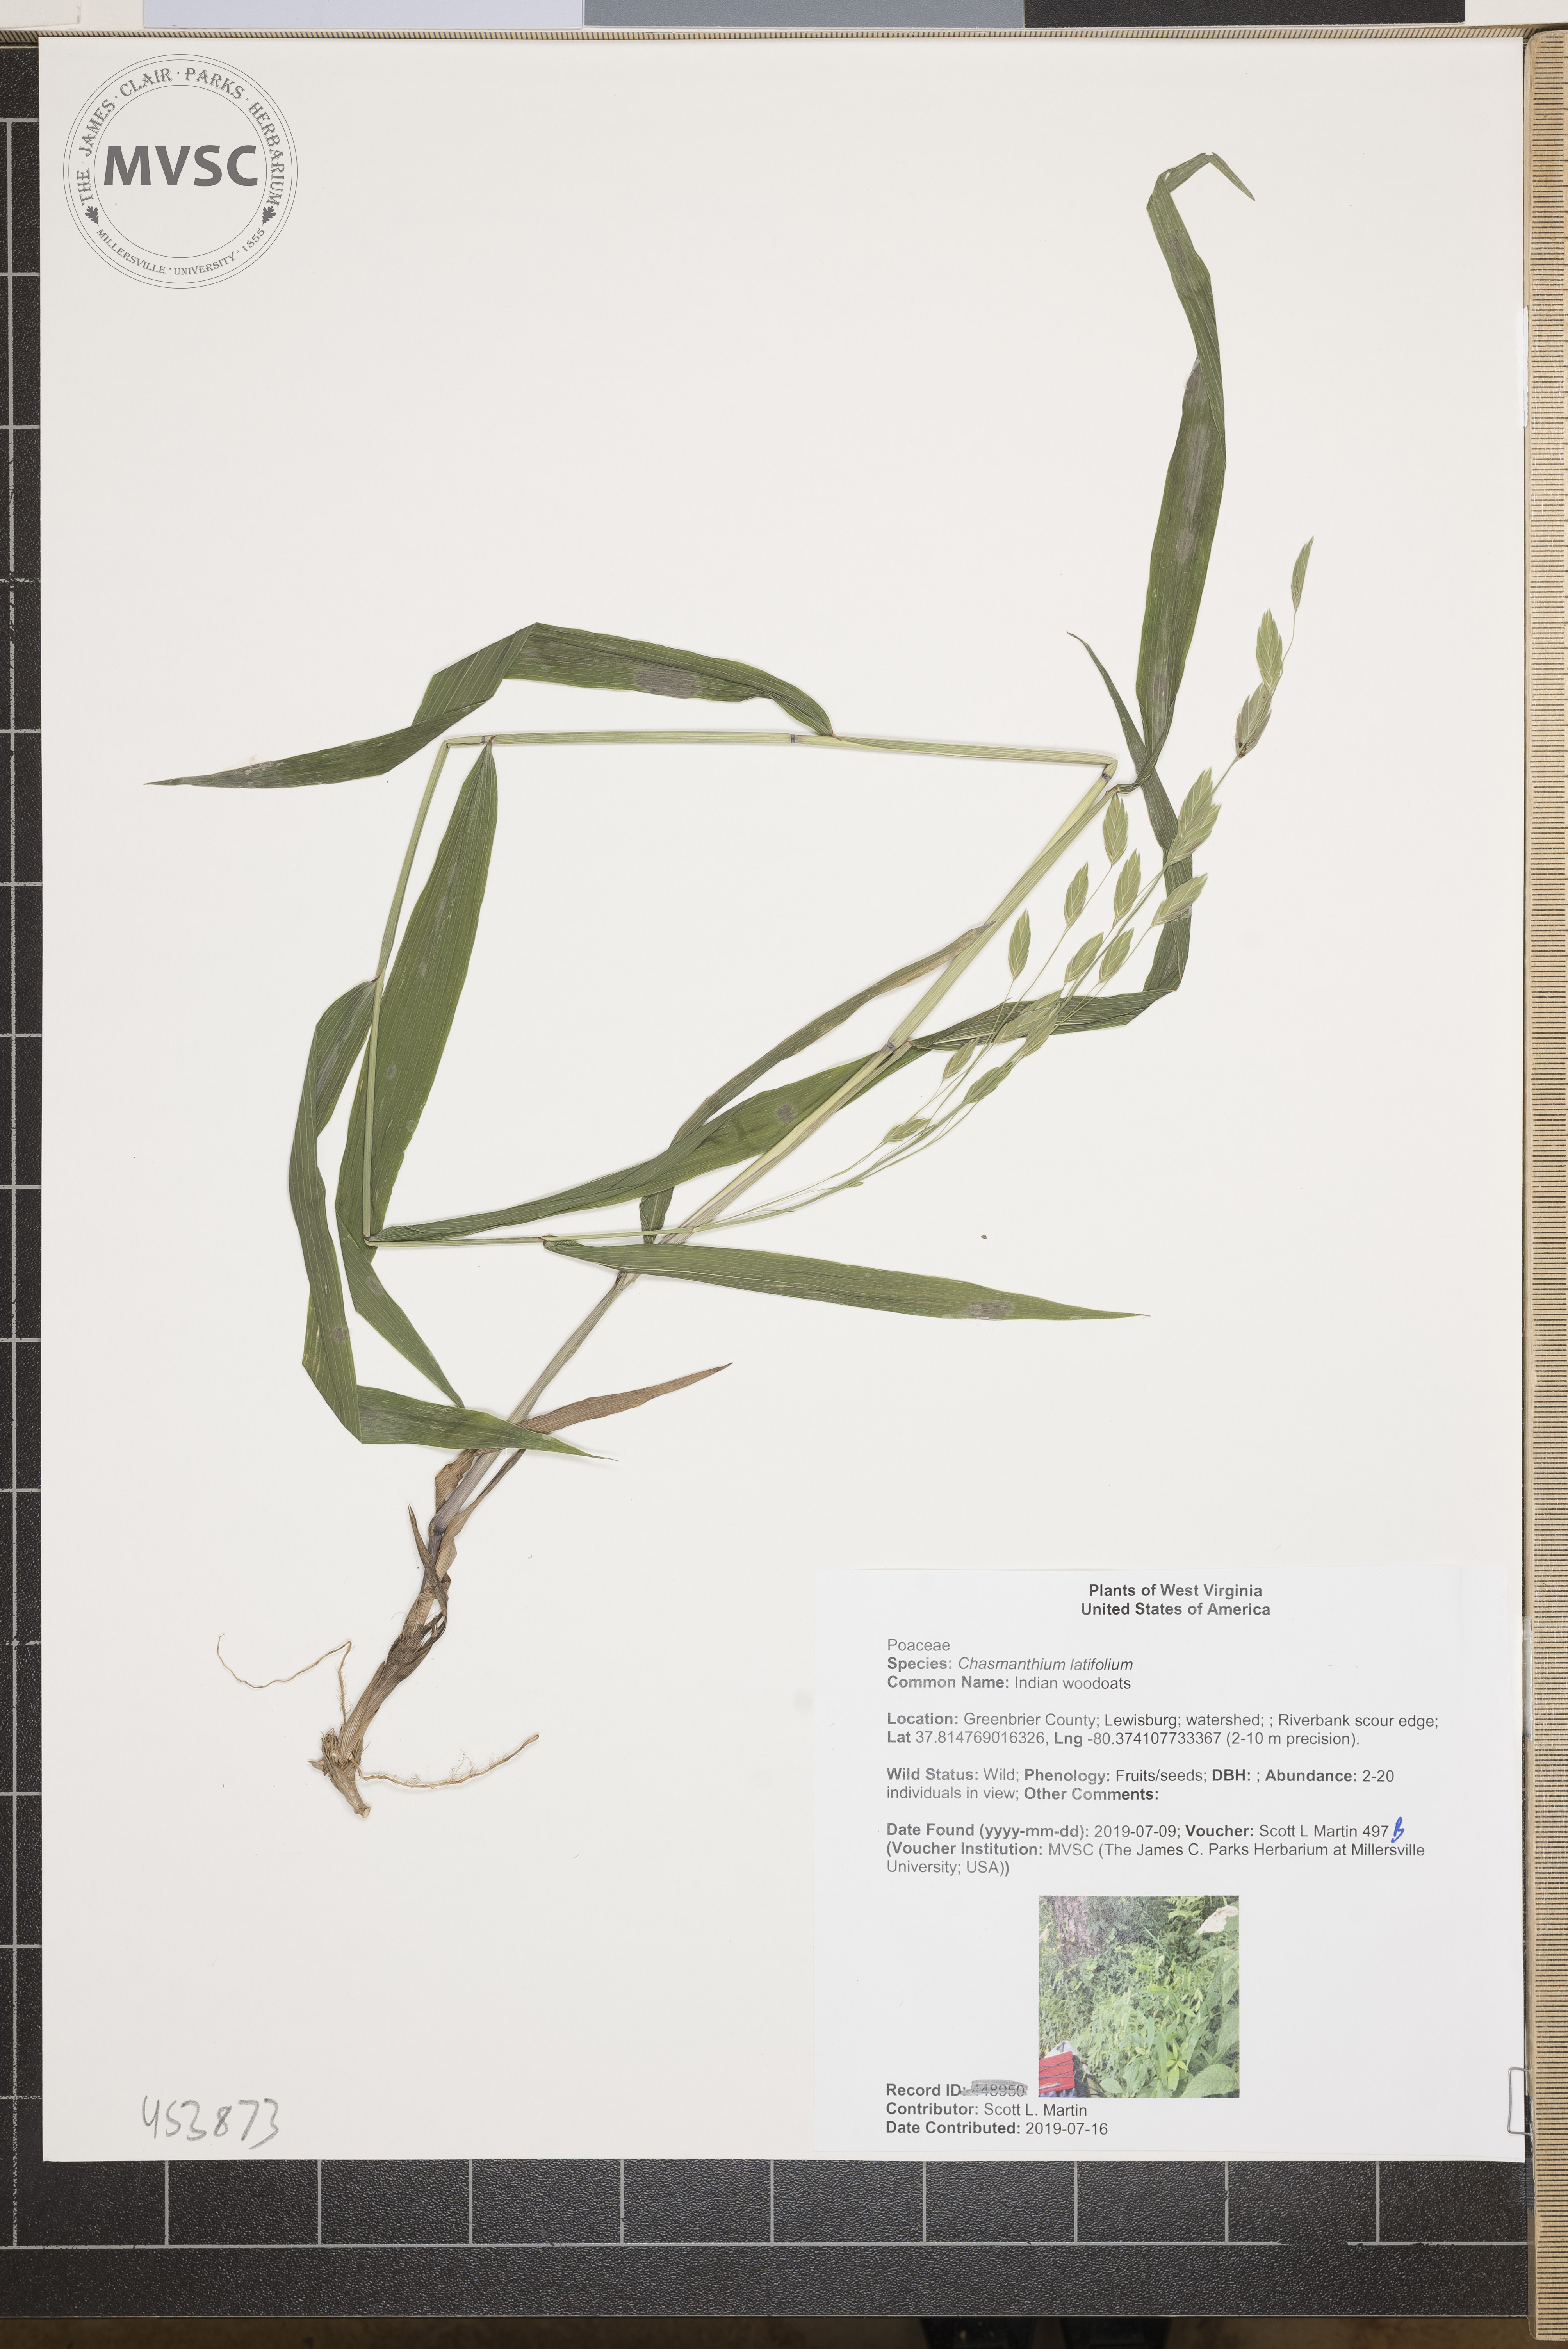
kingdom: Plantae
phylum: Tracheophyta
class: Liliopsida
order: Poales
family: Poaceae
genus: Chasmanthium
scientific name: Chasmanthium latifolium
